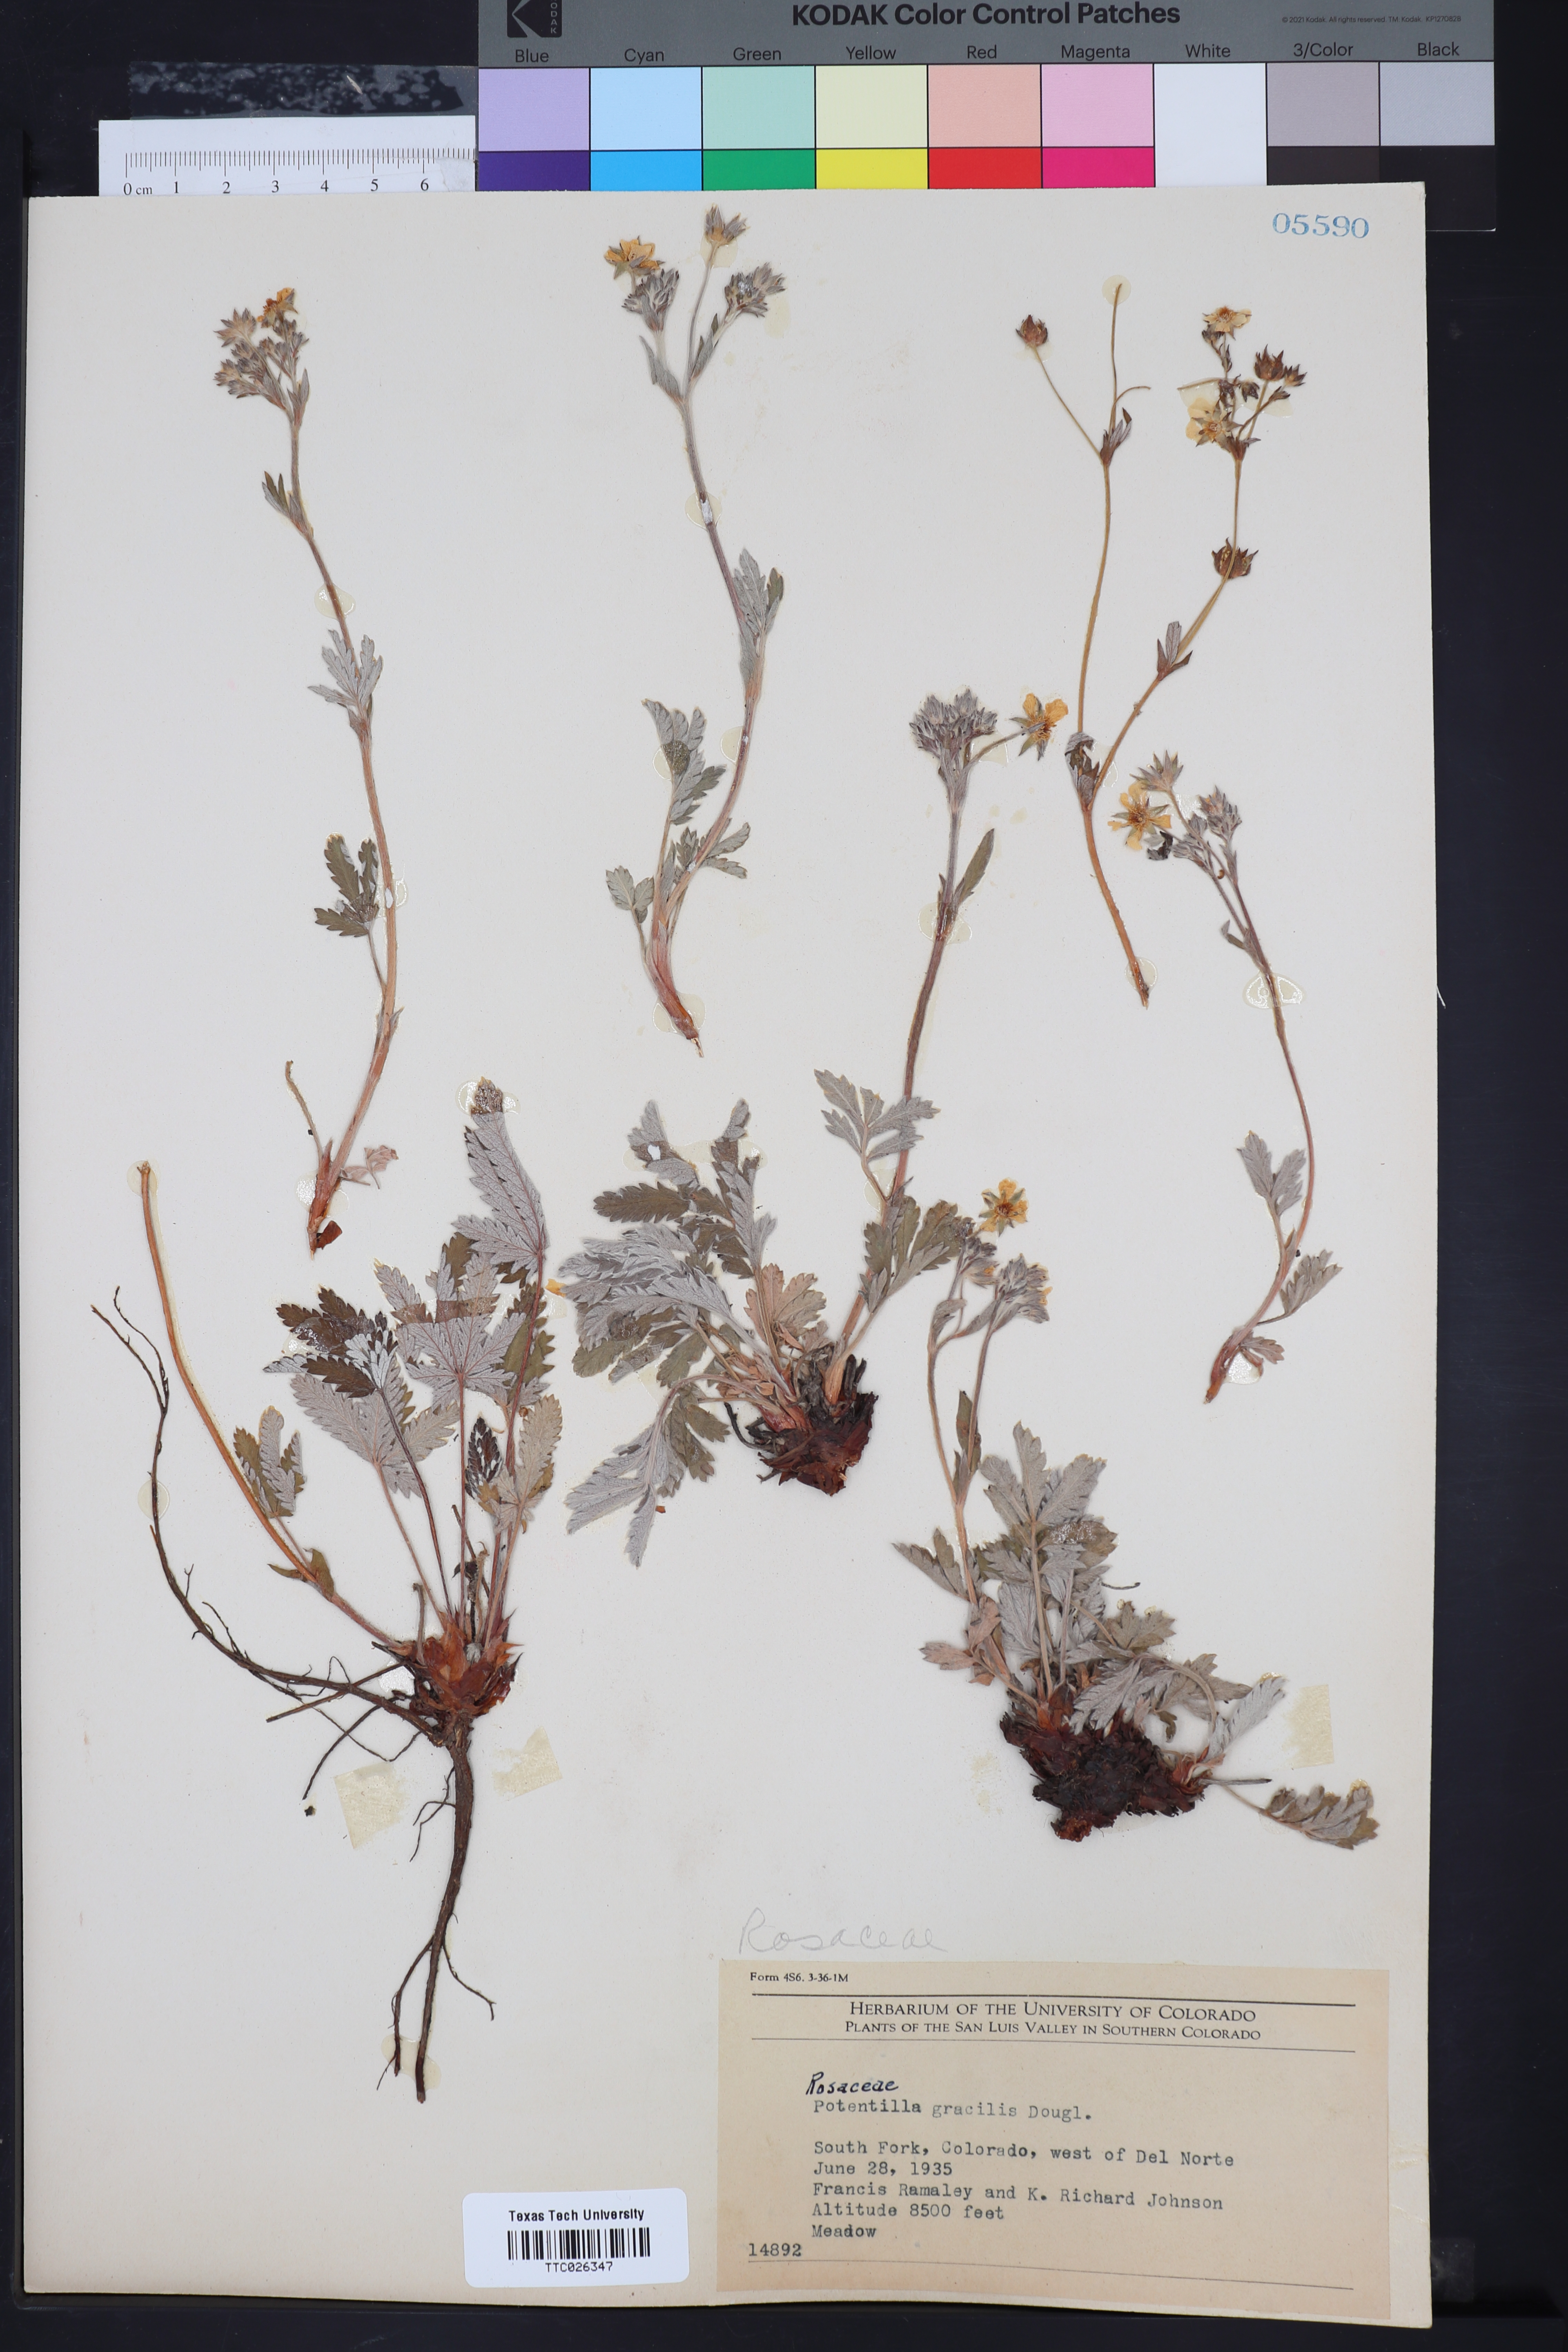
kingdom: Plantae
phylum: Tracheophyta
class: Magnoliopsida
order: Rosales
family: Rosaceae
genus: Potentilla
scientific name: Potentilla gracilis
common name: Graceful cinquefoil
